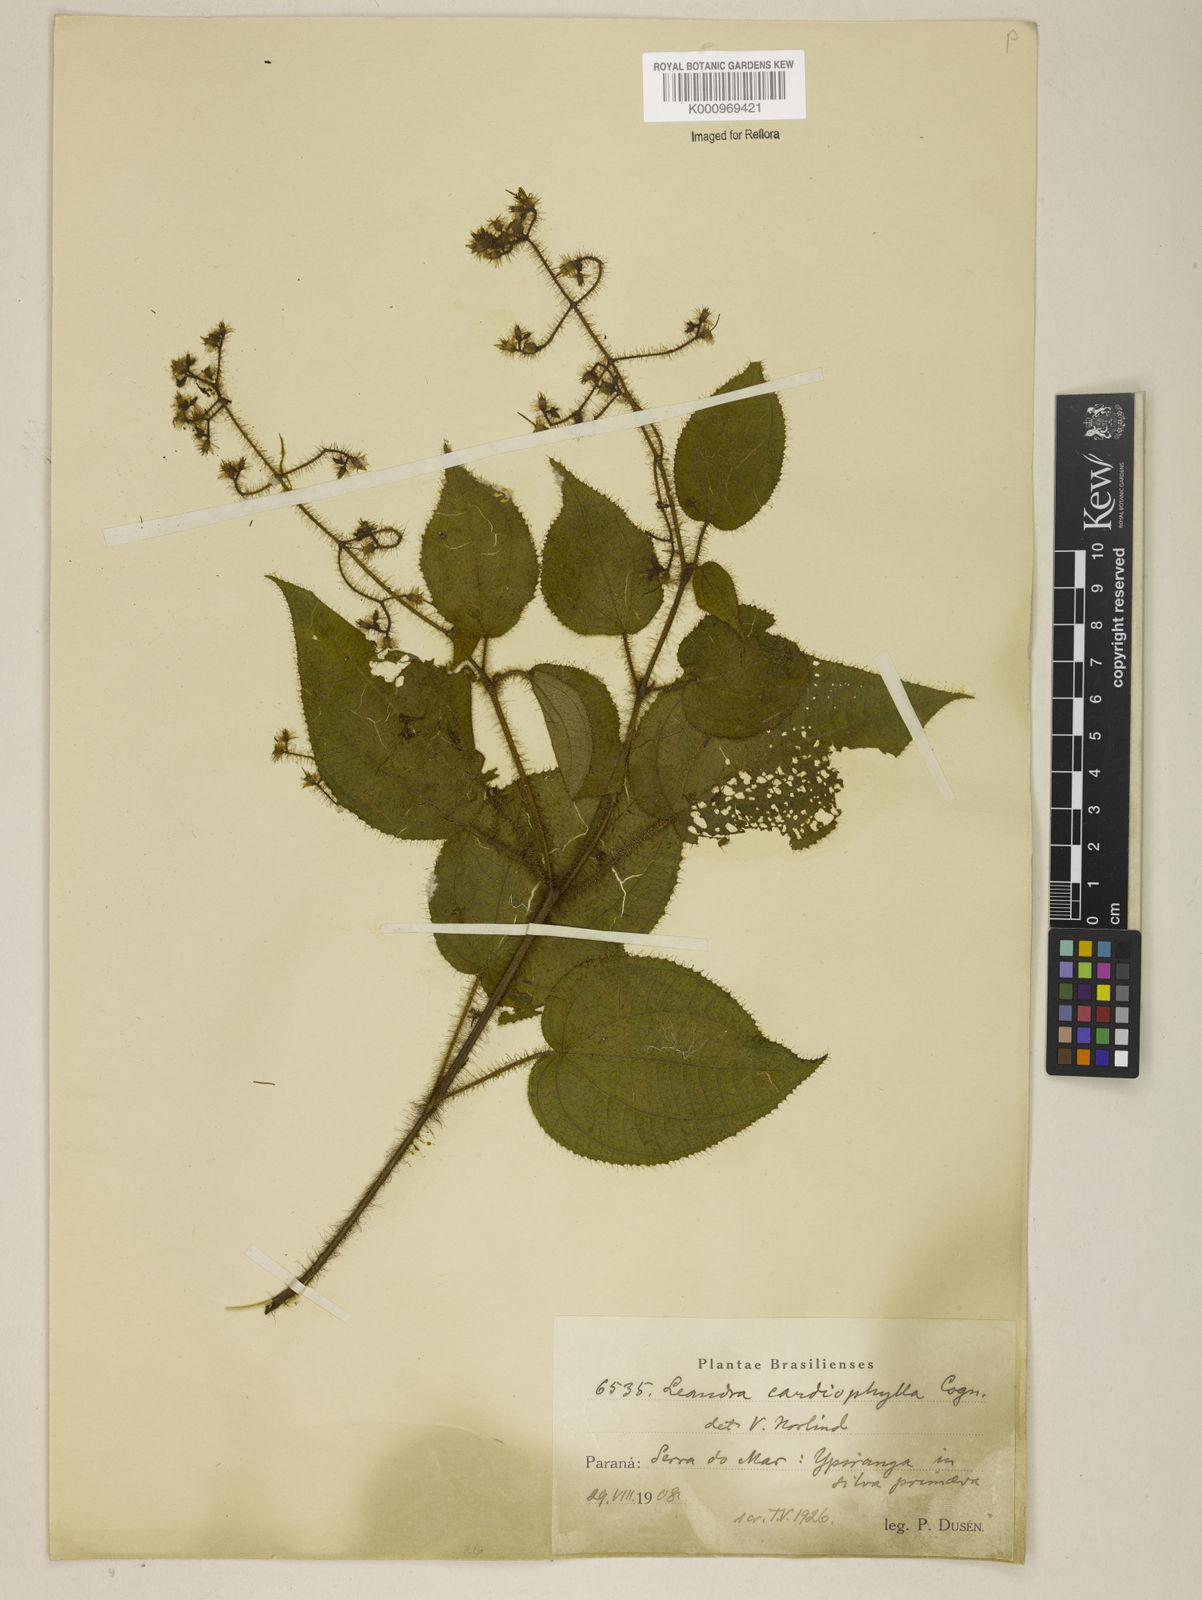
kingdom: Plantae
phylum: Tracheophyta
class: Magnoliopsida
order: Myrtales
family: Melastomataceae
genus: Miconia
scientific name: Miconia leacordifolia
